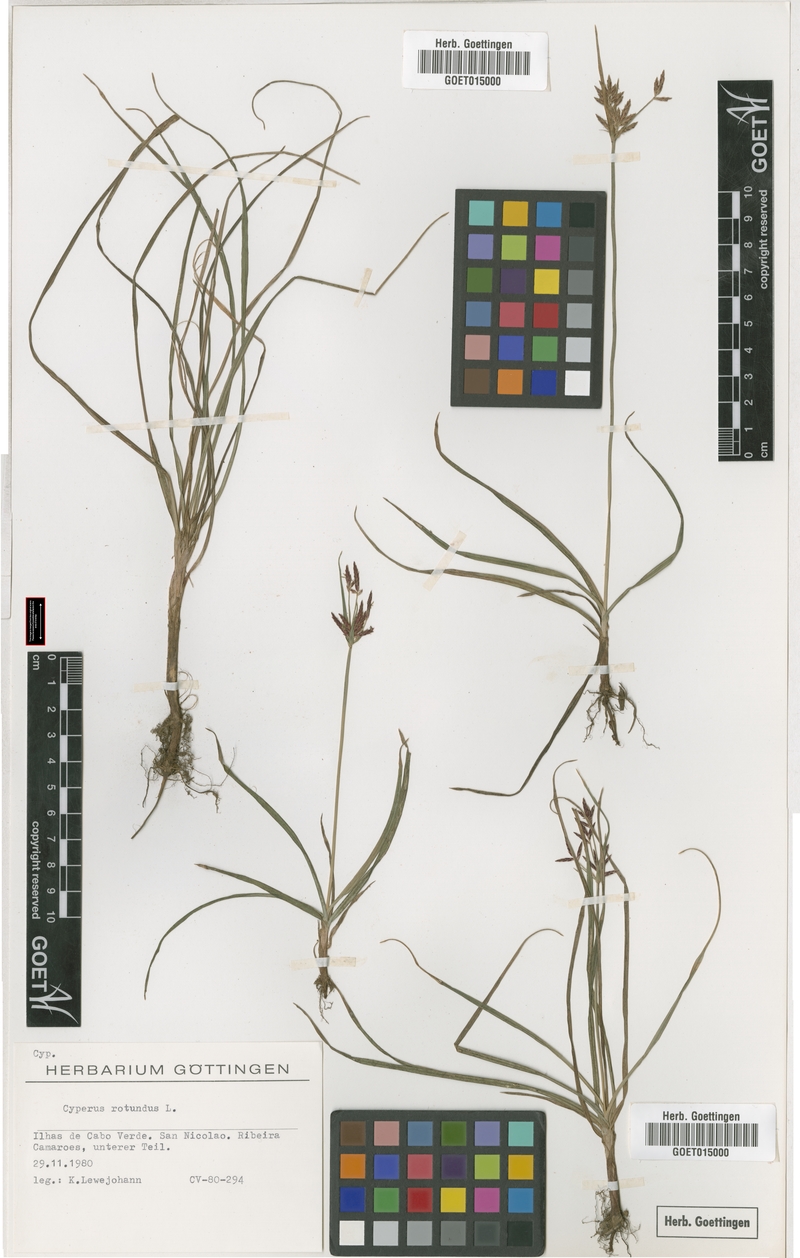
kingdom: Plantae
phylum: Tracheophyta
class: Liliopsida
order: Poales
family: Cyperaceae
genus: Cyperus
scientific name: Cyperus rotundus
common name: Nutgrass
